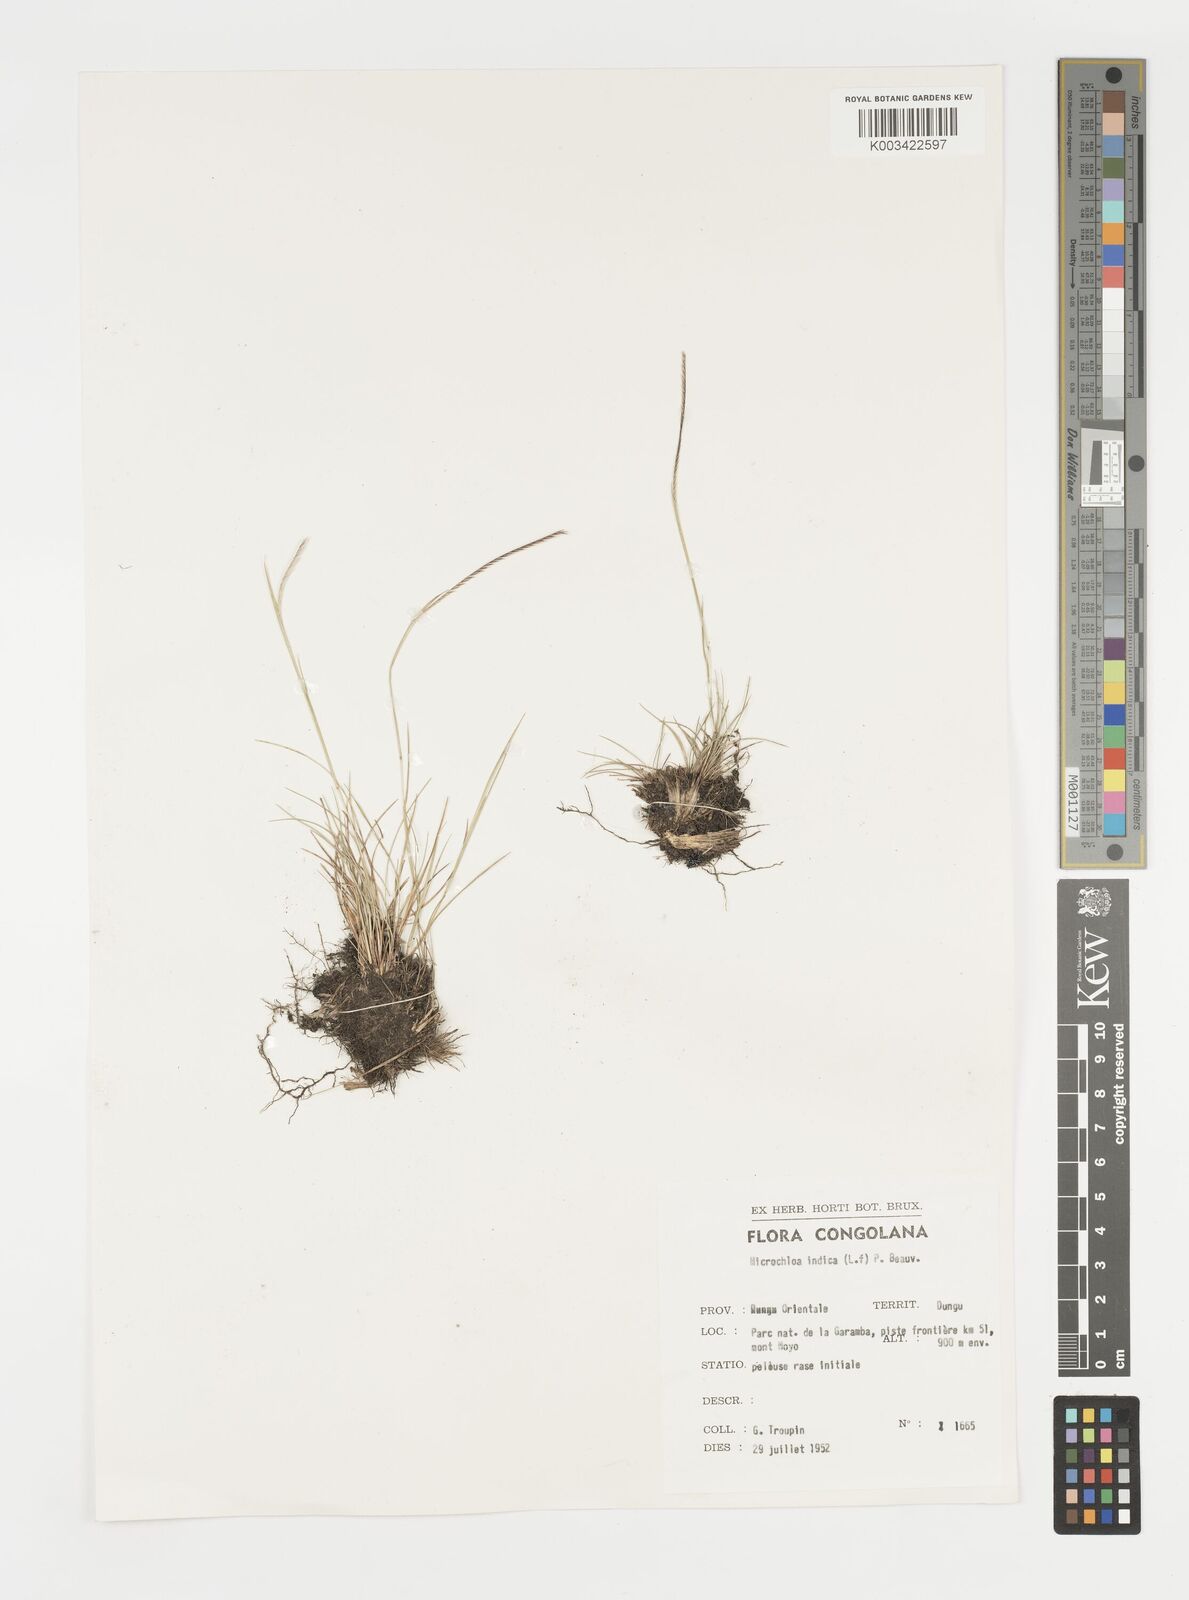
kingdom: Plantae
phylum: Tracheophyta
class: Liliopsida
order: Poales
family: Poaceae
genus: Microchloa
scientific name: Microchloa indica
